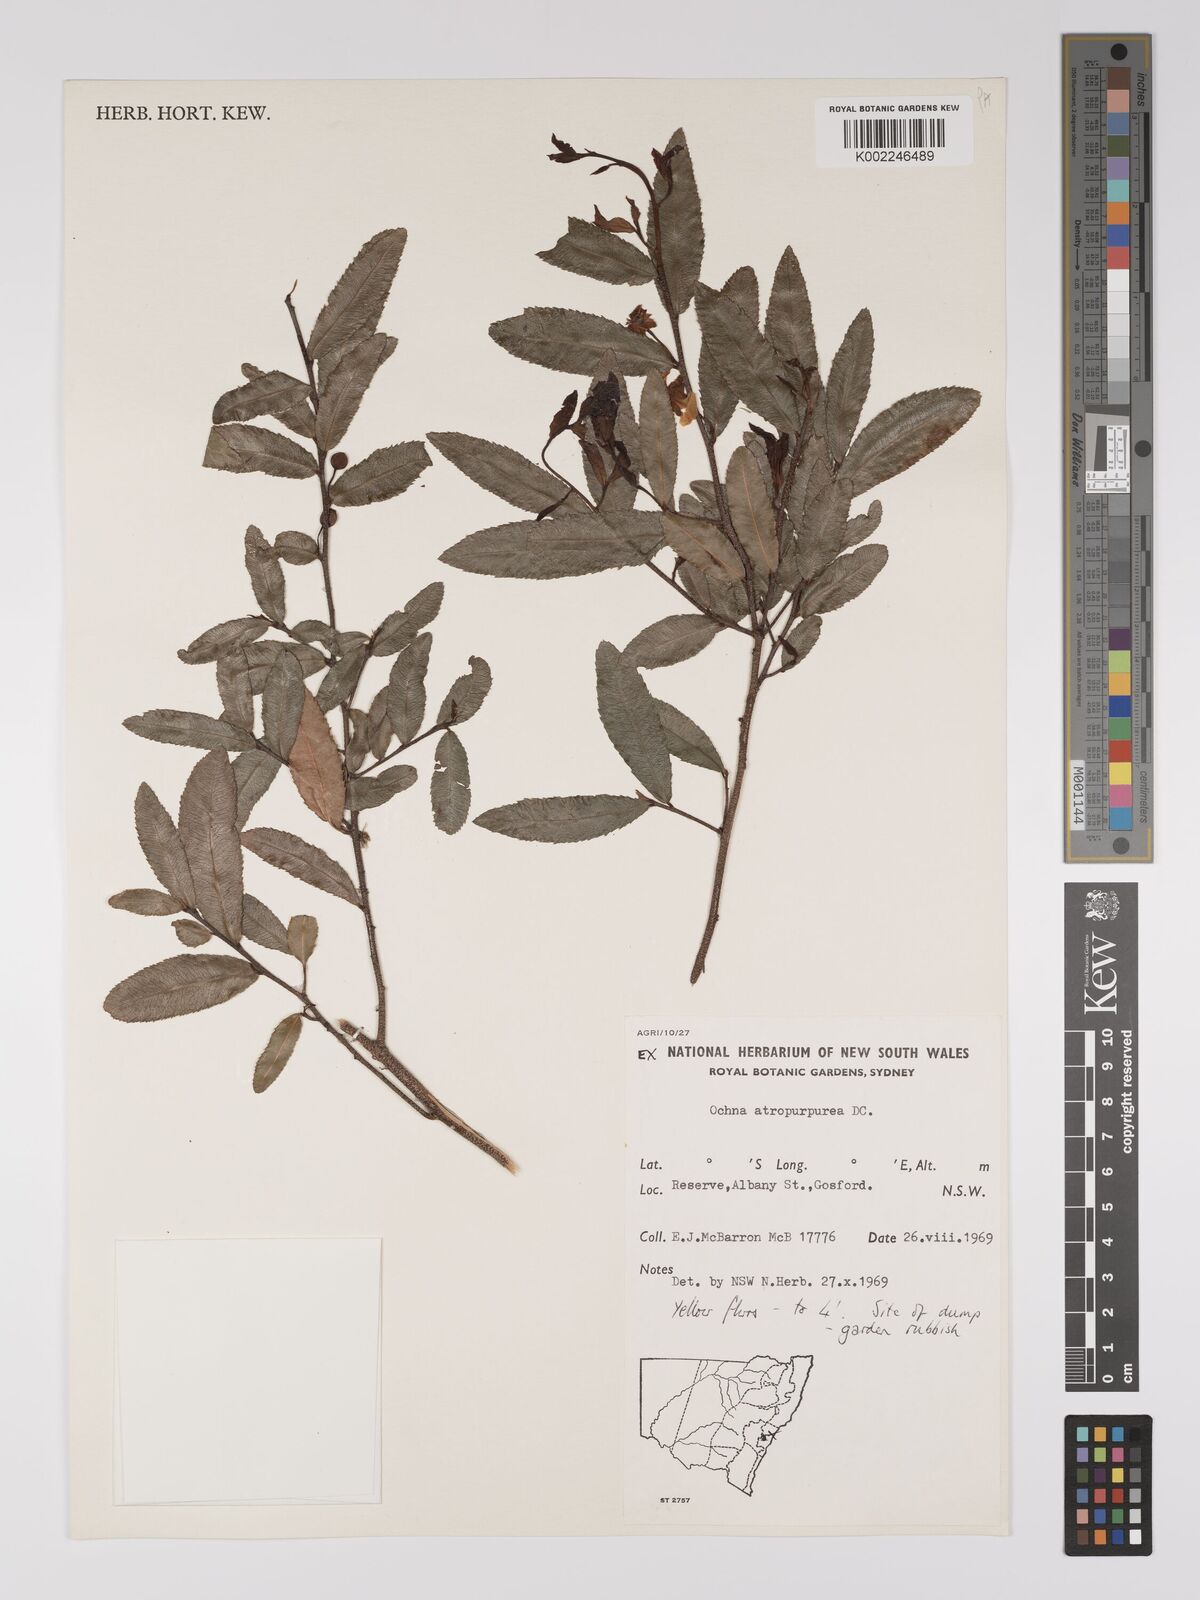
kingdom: Plantae
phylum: Tracheophyta
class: Magnoliopsida
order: Malpighiales
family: Ochnaceae
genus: Ochna
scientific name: Ochna atropurpurea
